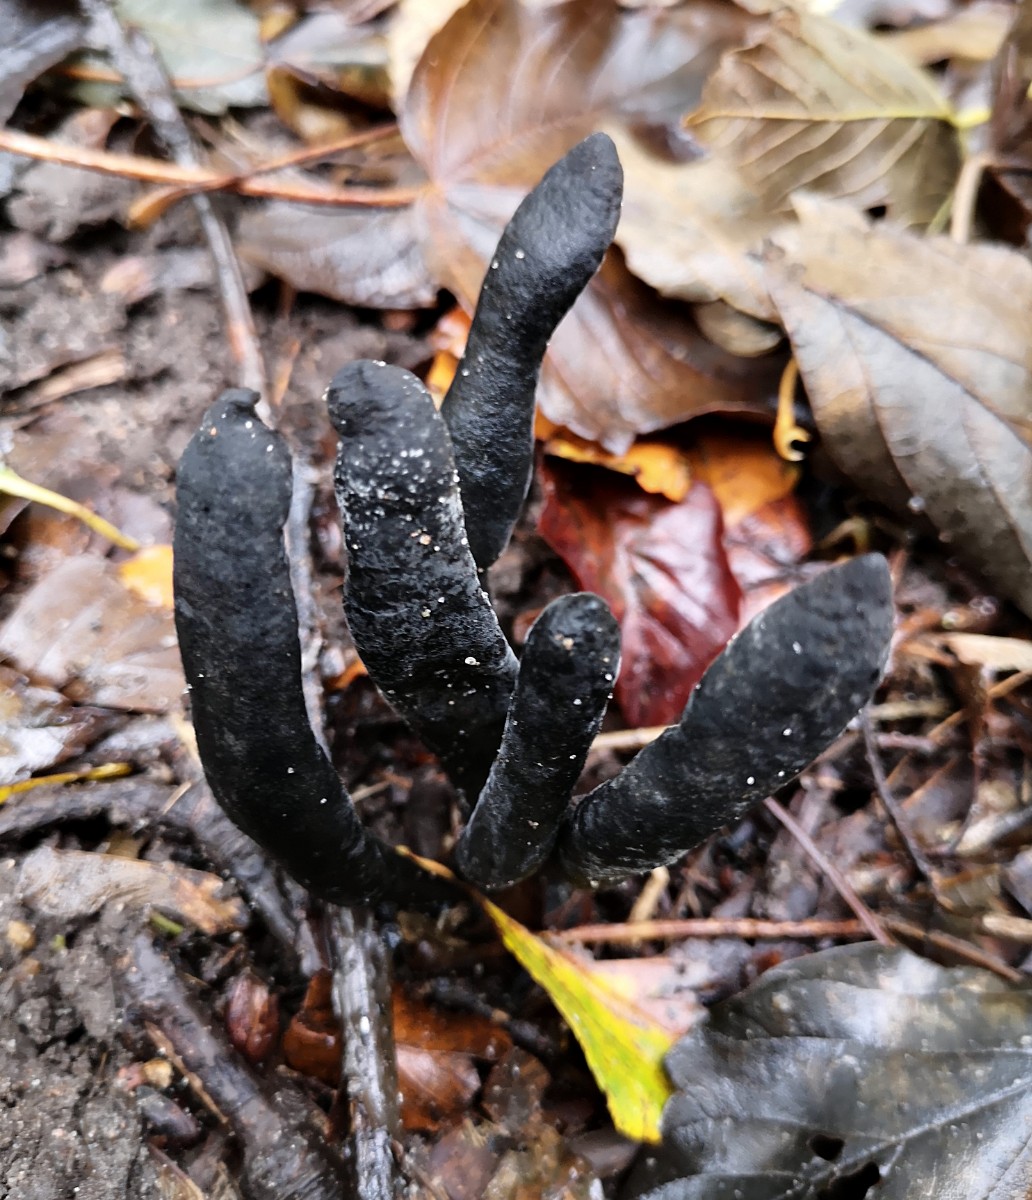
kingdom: Fungi
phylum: Ascomycota
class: Sordariomycetes
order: Xylariales
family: Xylariaceae
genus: Xylaria
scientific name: Xylaria longipes
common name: slank stødsvamp
